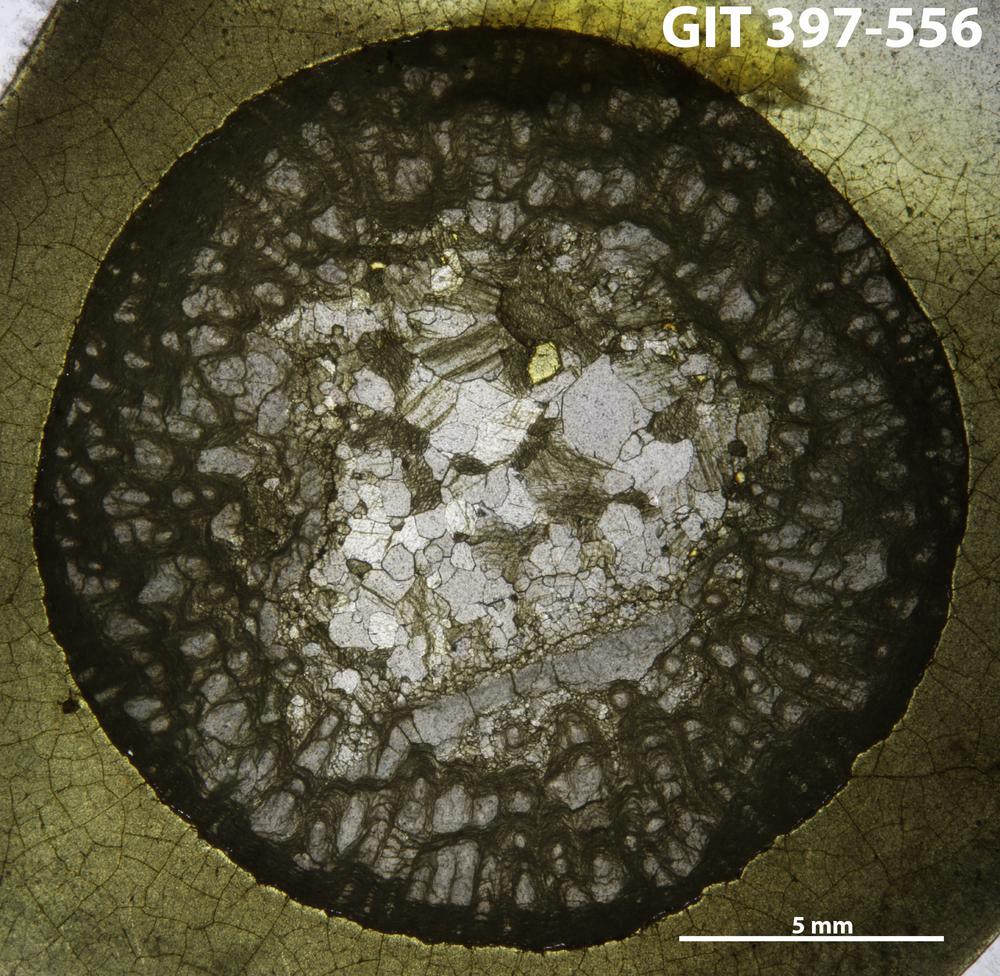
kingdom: Animalia
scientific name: Animalia
